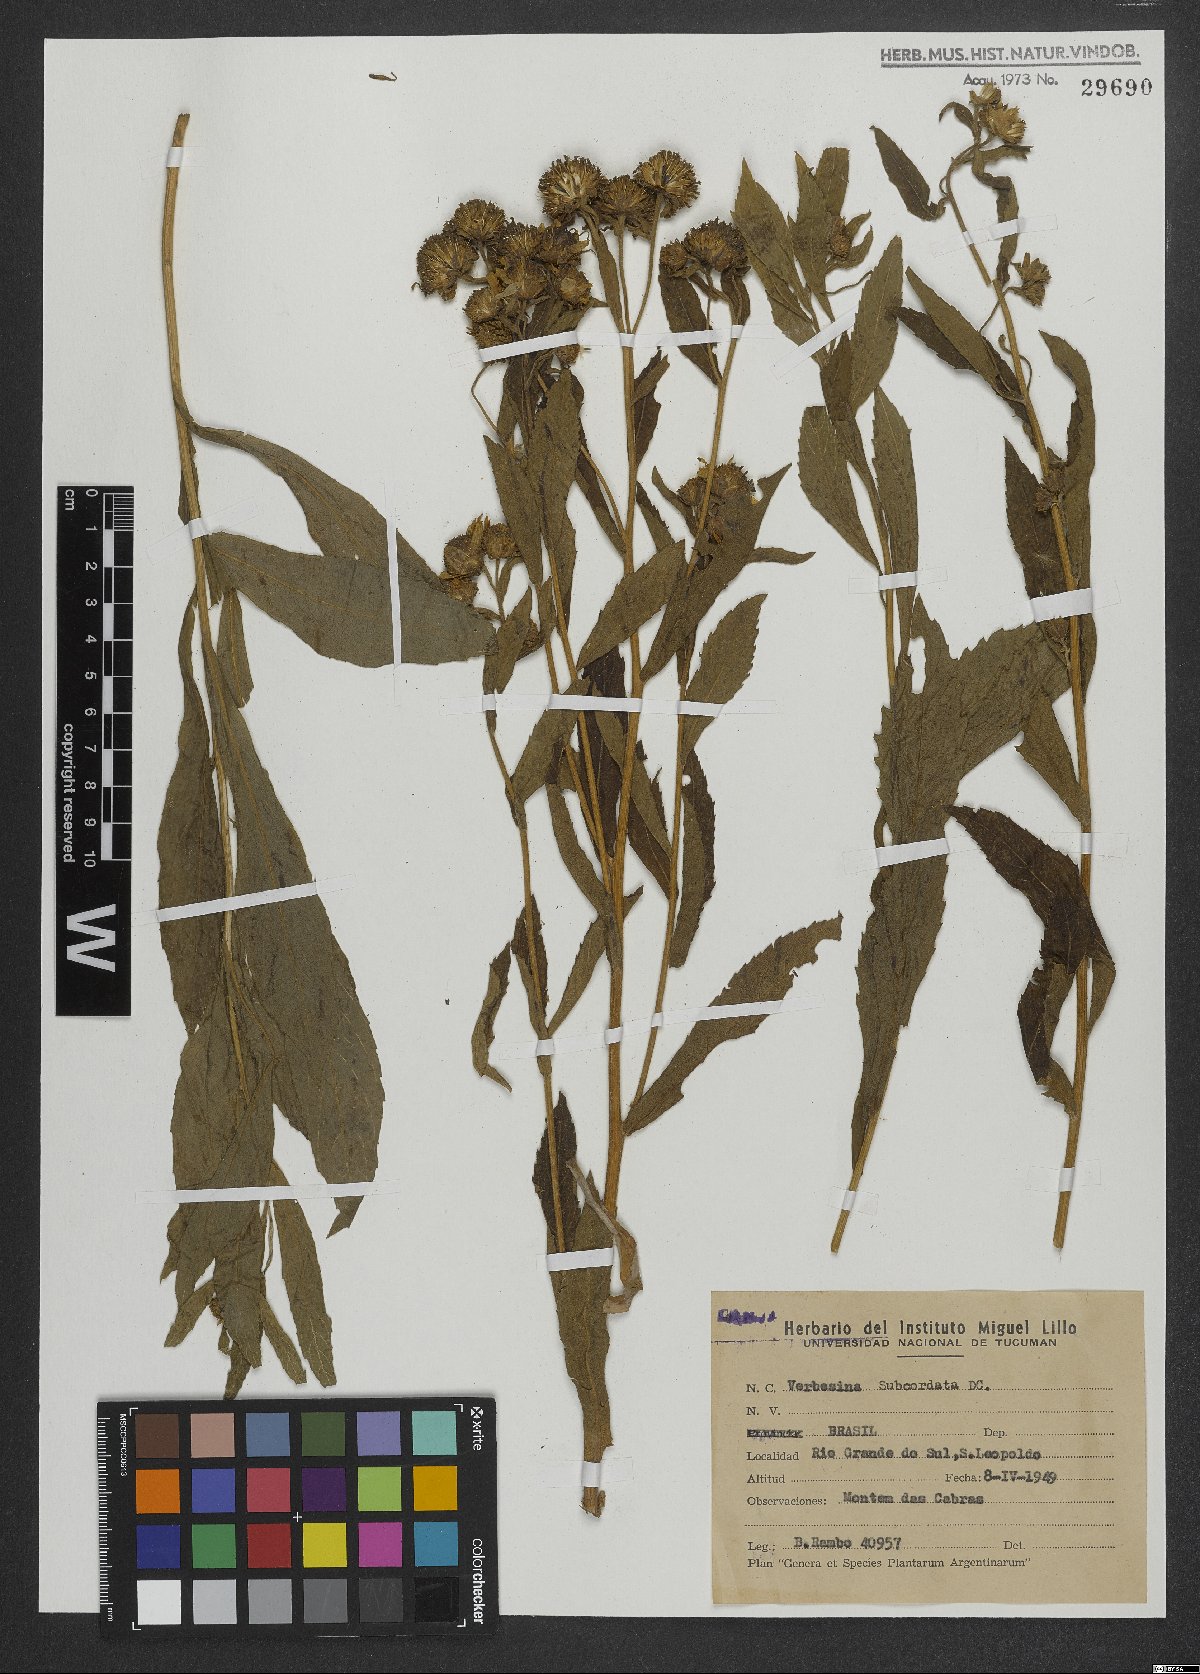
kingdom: Plantae
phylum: Tracheophyta
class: Magnoliopsida
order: Asterales
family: Asteraceae
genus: Verbesina
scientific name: Verbesina subcordata
